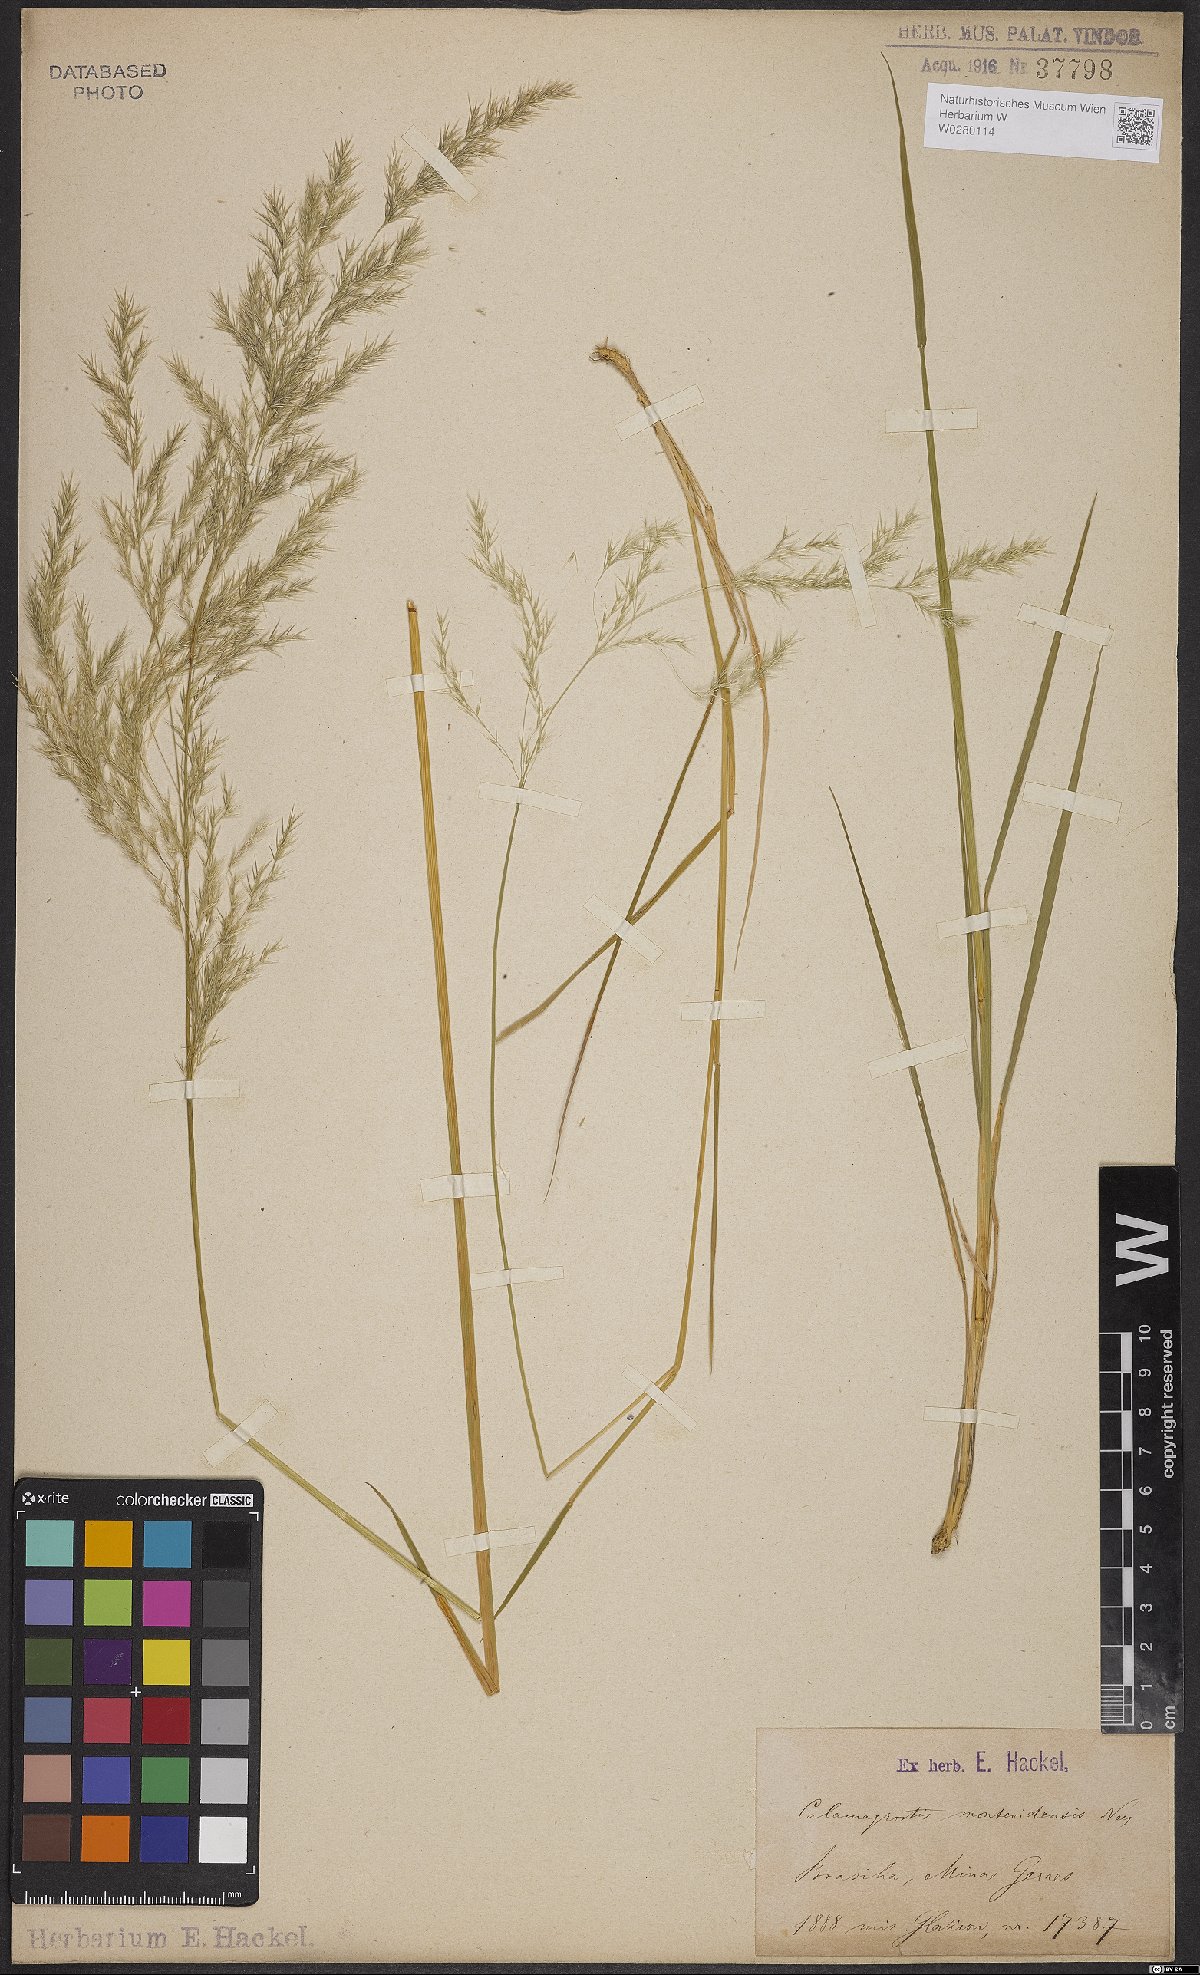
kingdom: Plantae
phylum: Tracheophyta
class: Liliopsida
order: Poales
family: Poaceae
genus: Cinnagrostis
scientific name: Cinnagrostis viridiflavescens
